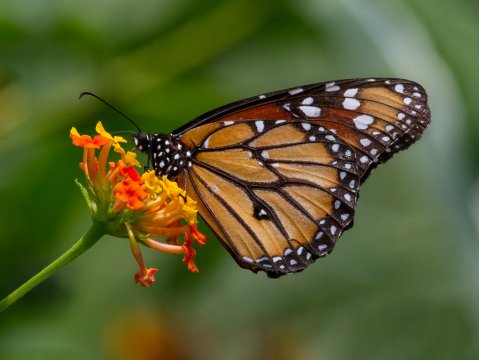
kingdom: Animalia
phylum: Arthropoda
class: Insecta
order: Lepidoptera
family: Nymphalidae
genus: Danaus
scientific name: Danaus gilippus
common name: Queen
